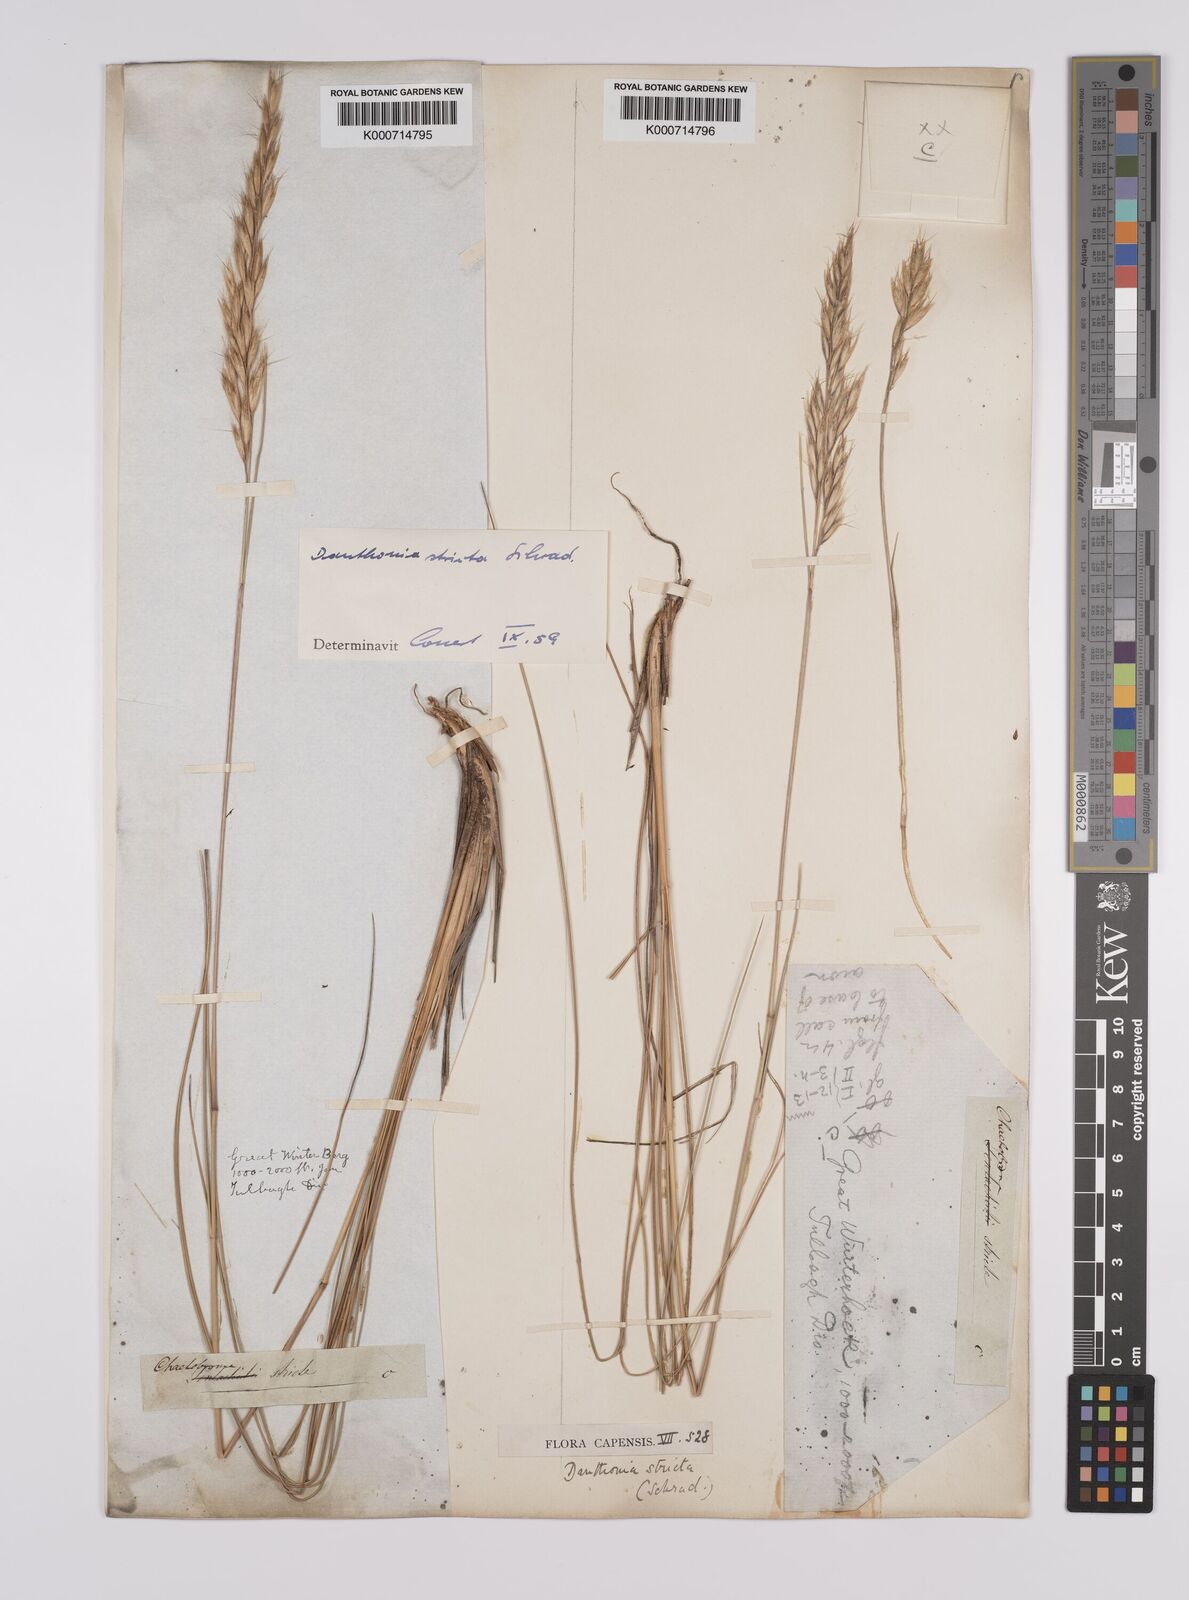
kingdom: Plantae
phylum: Tracheophyta
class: Liliopsida
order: Poales
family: Poaceae
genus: Rytidosperma
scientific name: Rytidosperma
